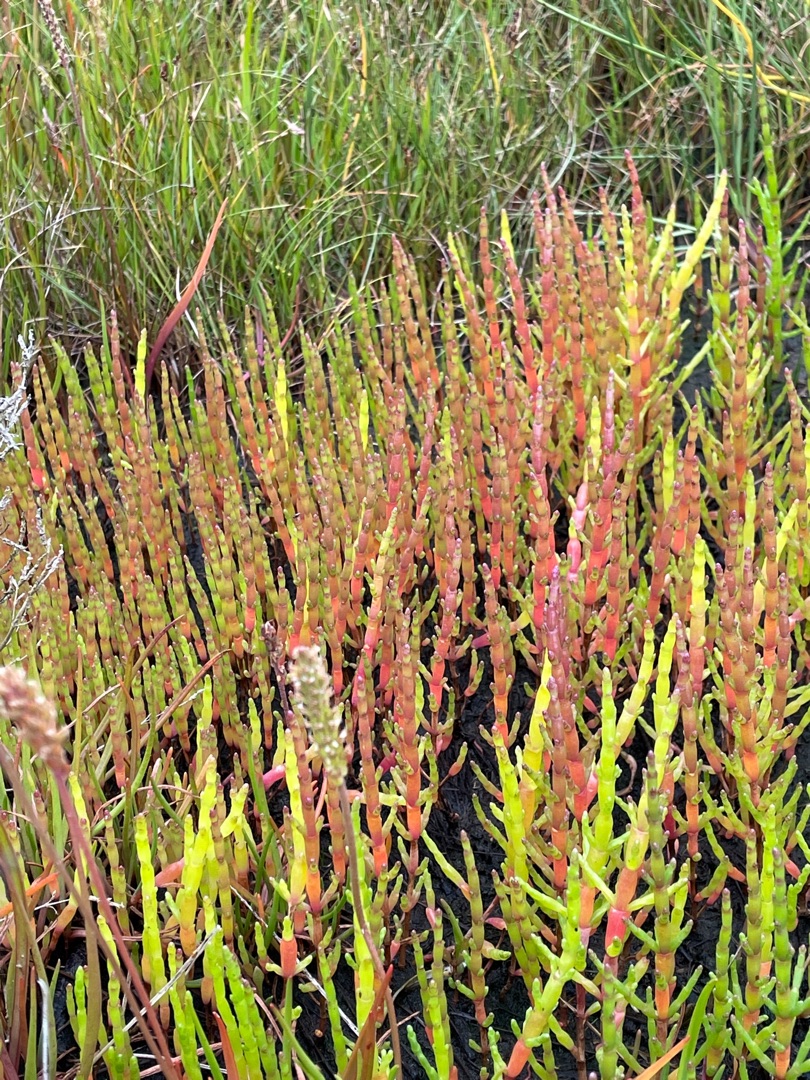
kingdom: Plantae
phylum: Tracheophyta
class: Magnoliopsida
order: Caryophyllales
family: Amaranthaceae
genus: Salicornia
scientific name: Salicornia
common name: Vade-salturt
